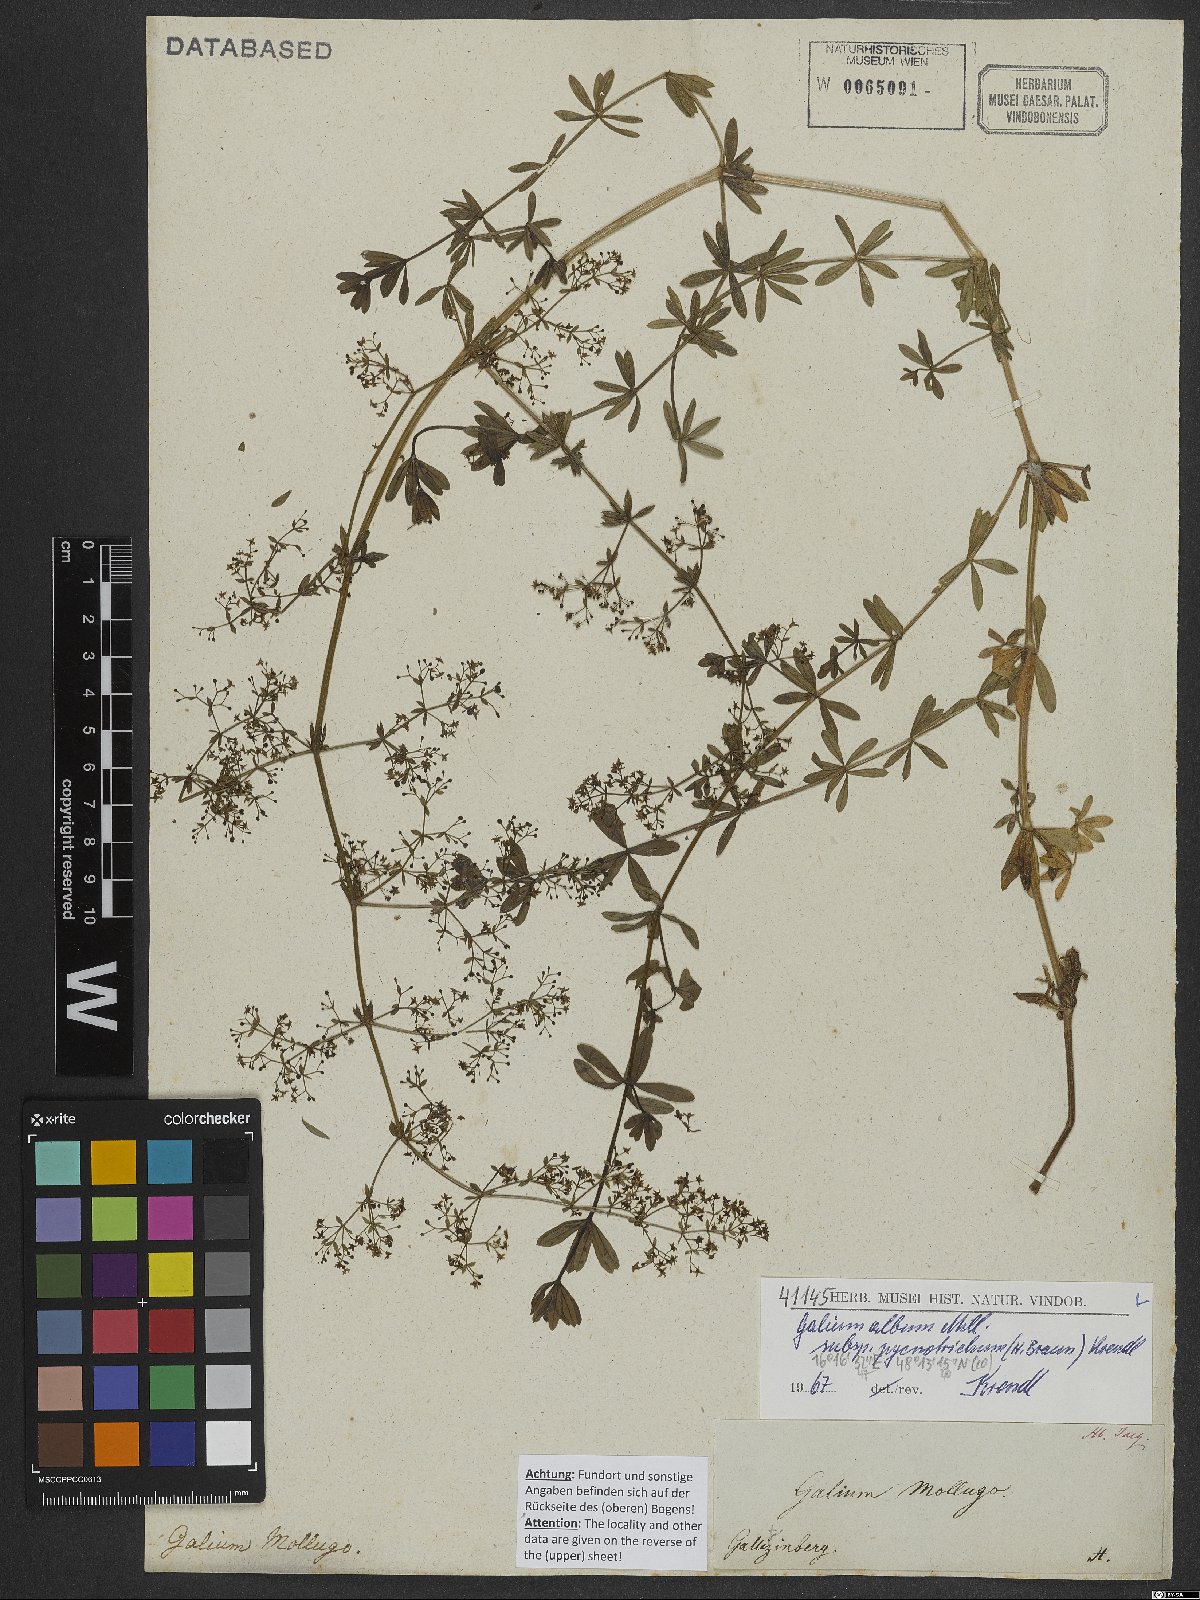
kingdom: Plantae
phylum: Tracheophyta
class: Magnoliopsida
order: Gentianales
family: Rubiaceae
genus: Galium
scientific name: Galium album
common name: White bedstraw
